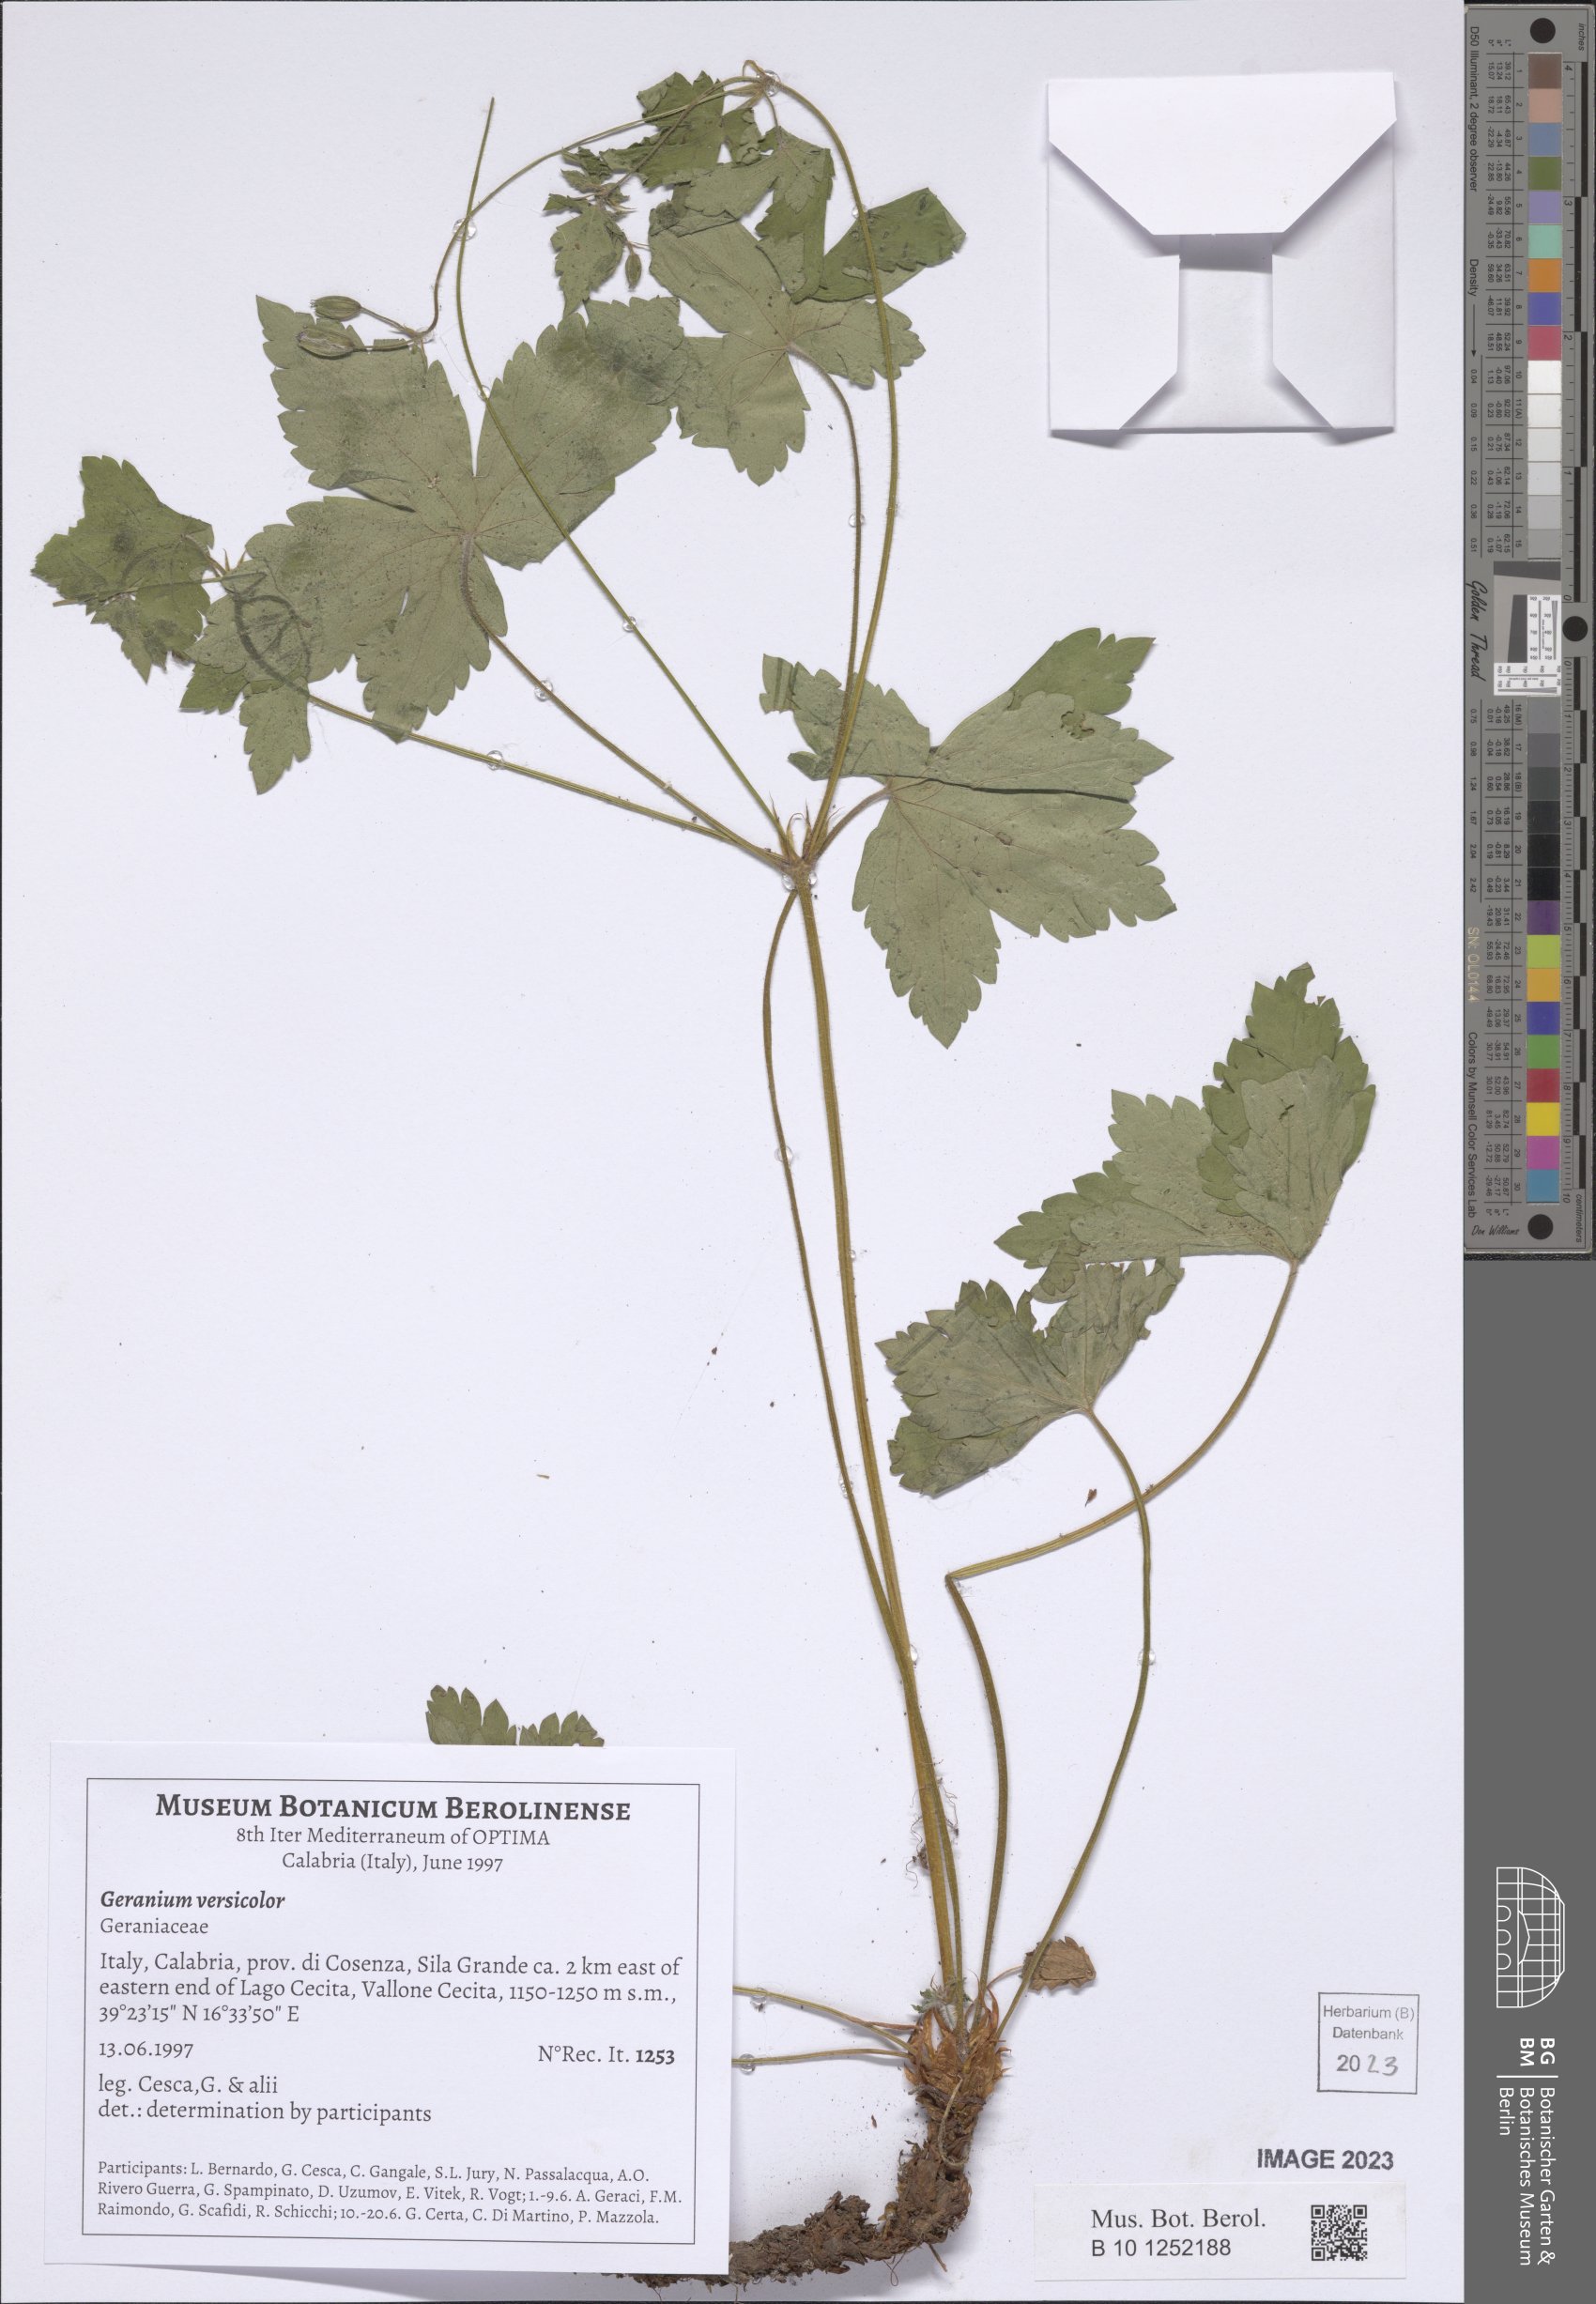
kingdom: Plantae
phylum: Tracheophyta
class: Magnoliopsida
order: Geraniales
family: Geraniaceae
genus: Geranium
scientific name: Geranium versicolor
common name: Pencilled crane's-bill
